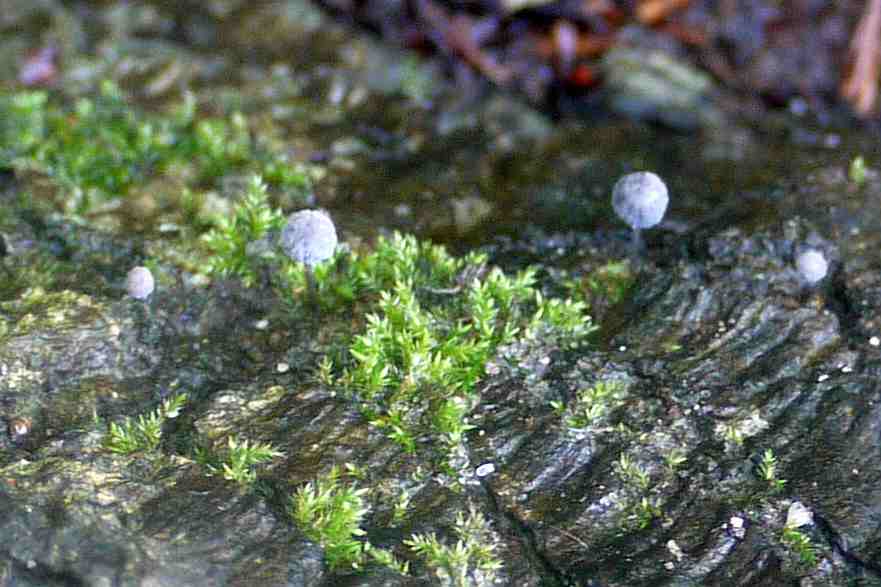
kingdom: Fungi
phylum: Basidiomycota
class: Agaricomycetes
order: Agaricales
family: Mycenaceae
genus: Mycena
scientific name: Mycena pseudocorticola
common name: gråblå bark-huesvamp
